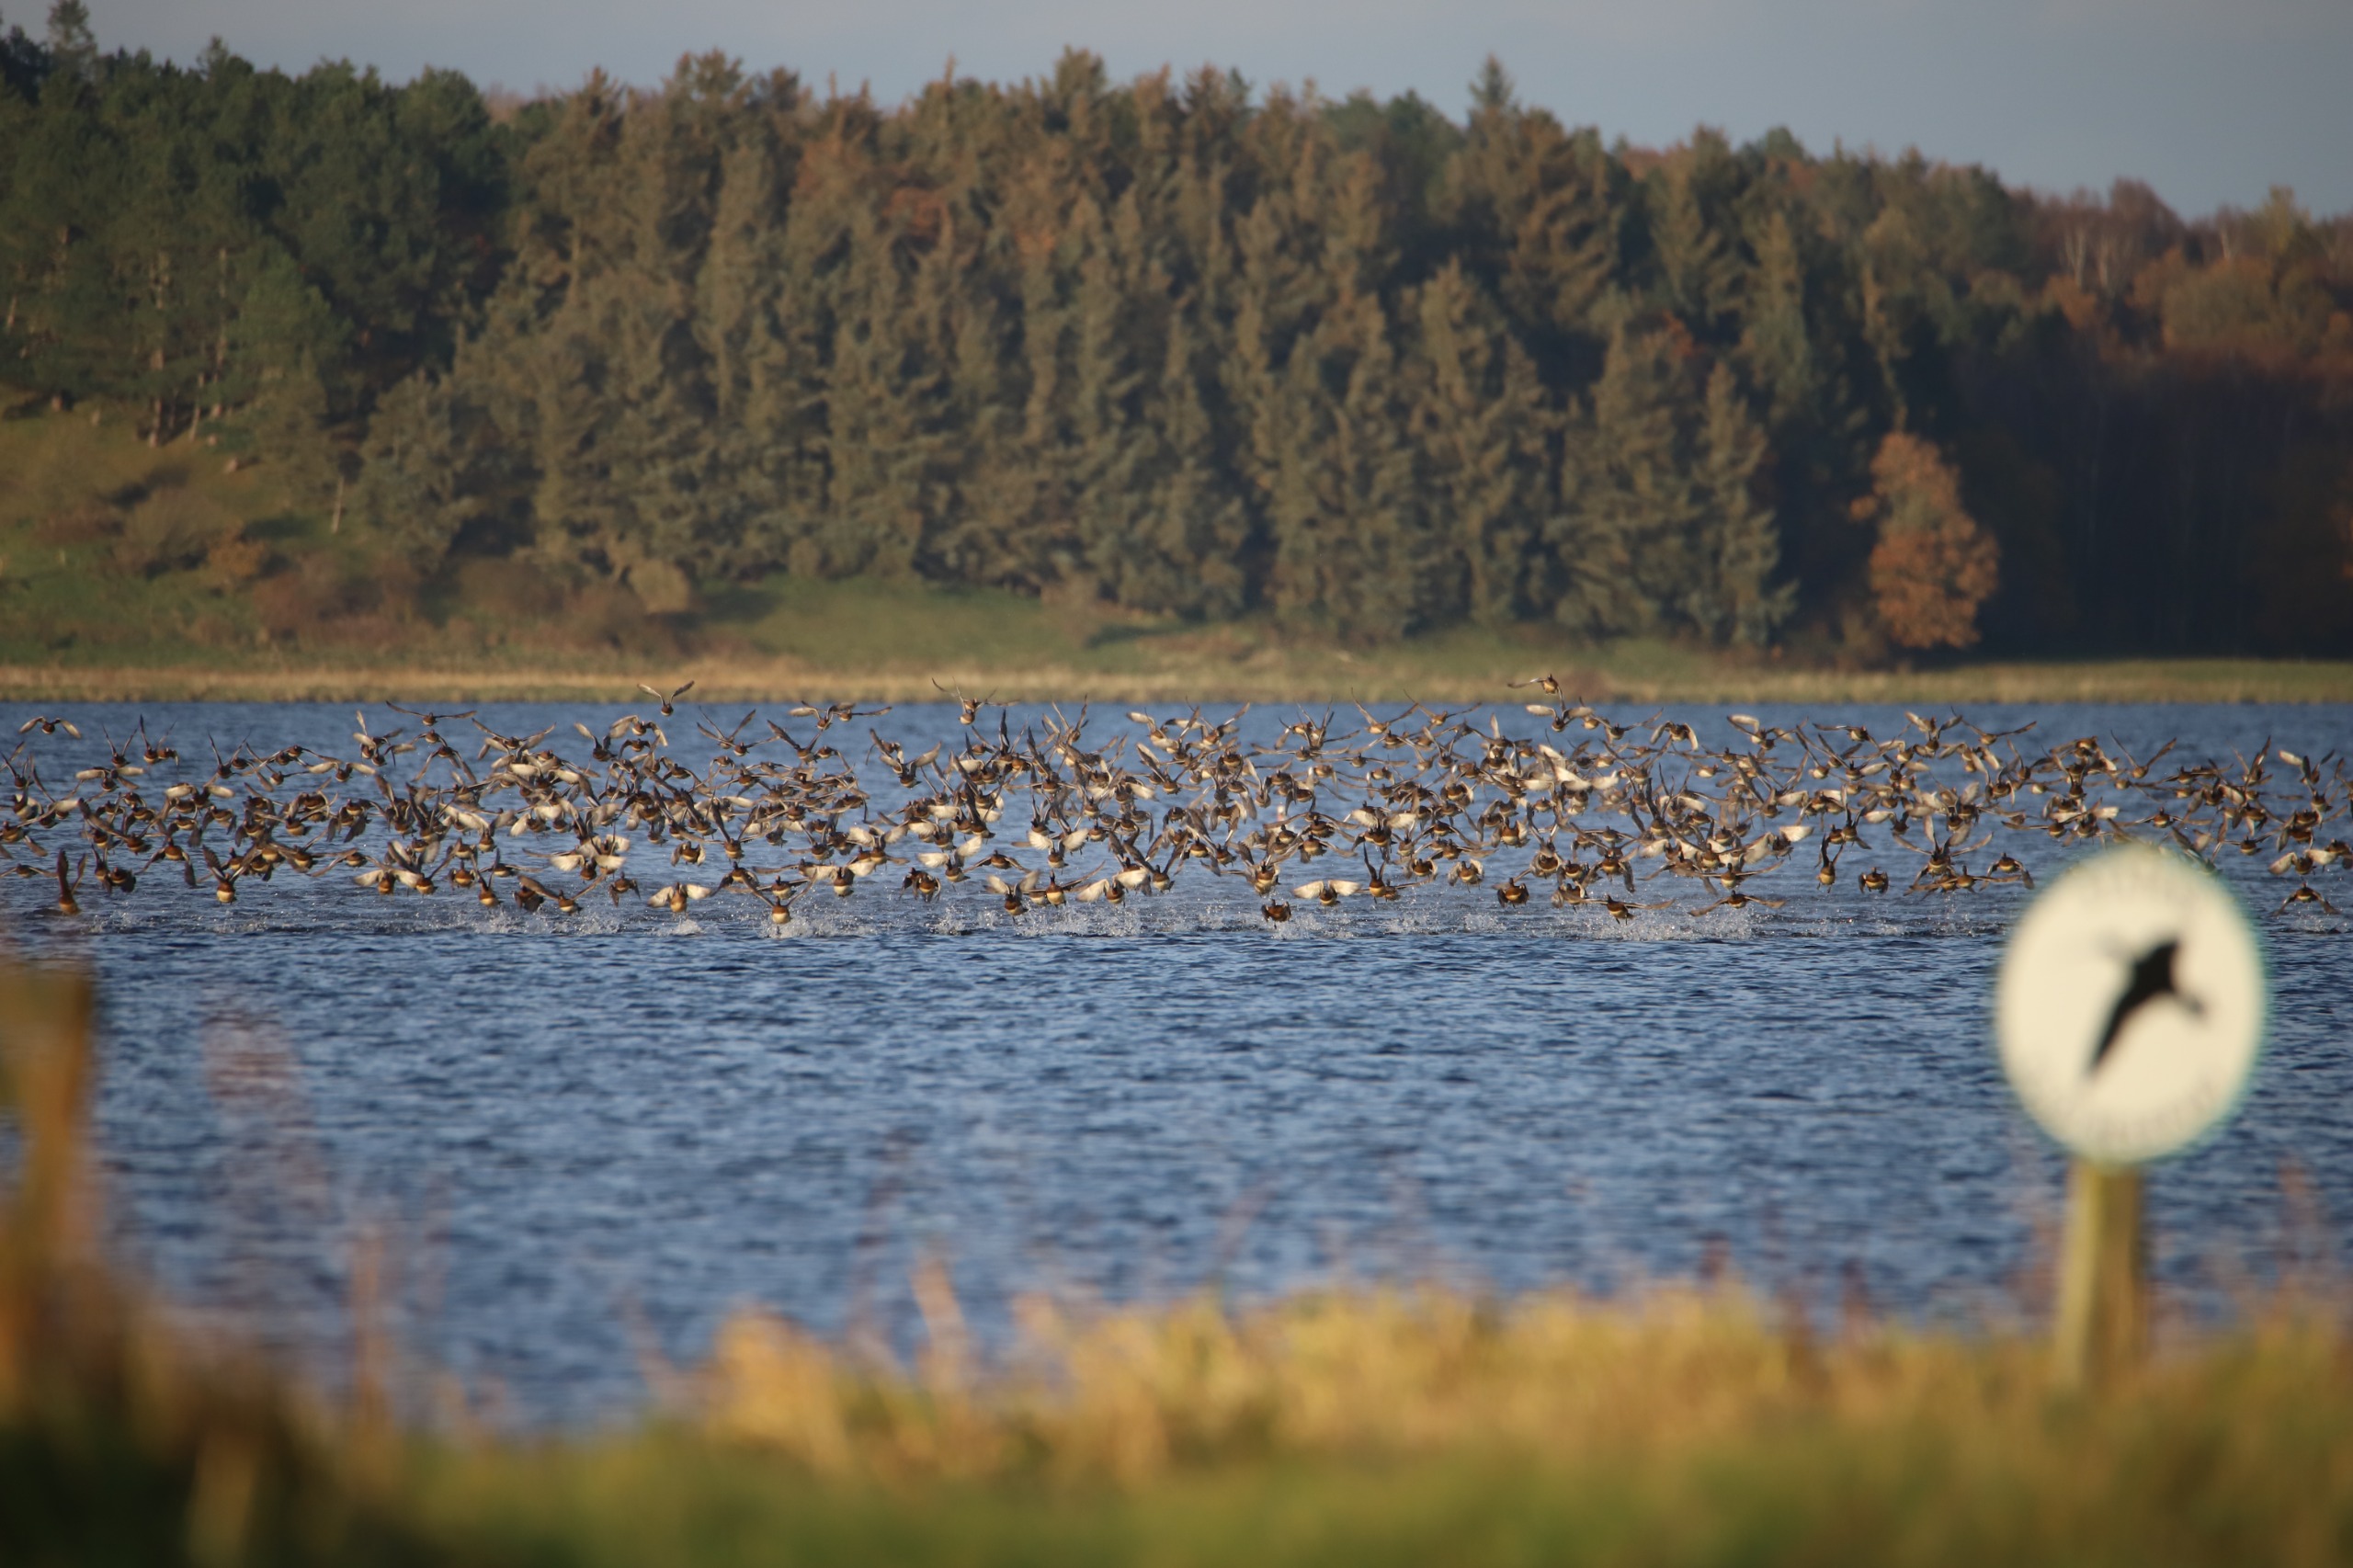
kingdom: Animalia
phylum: Chordata
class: Aves
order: Anseriformes
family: Anatidae
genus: Mareca
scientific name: Mareca penelope
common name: Pibeand
